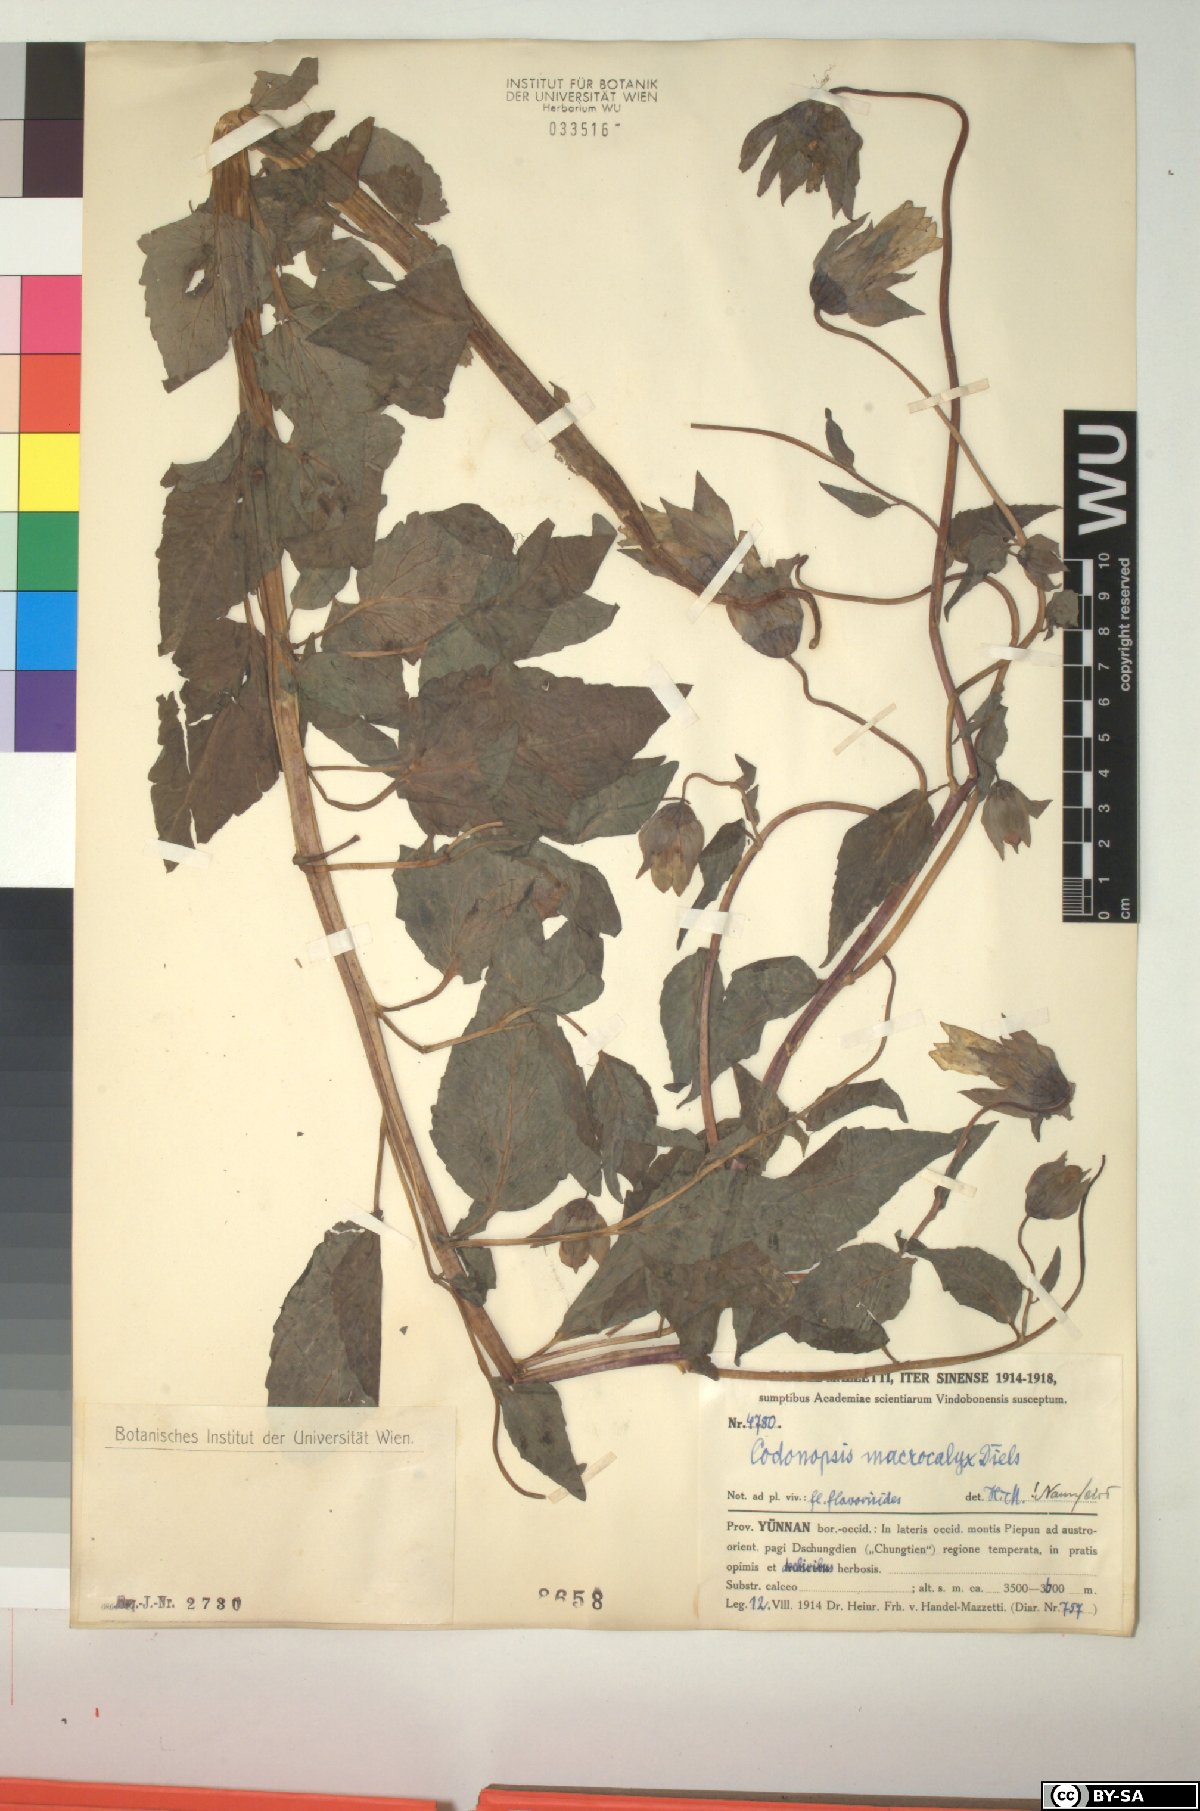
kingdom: Plantae
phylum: Tracheophyta
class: Magnoliopsida
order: Asterales
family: Campanulaceae
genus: Codonopsis
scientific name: Codonopsis benthamii
